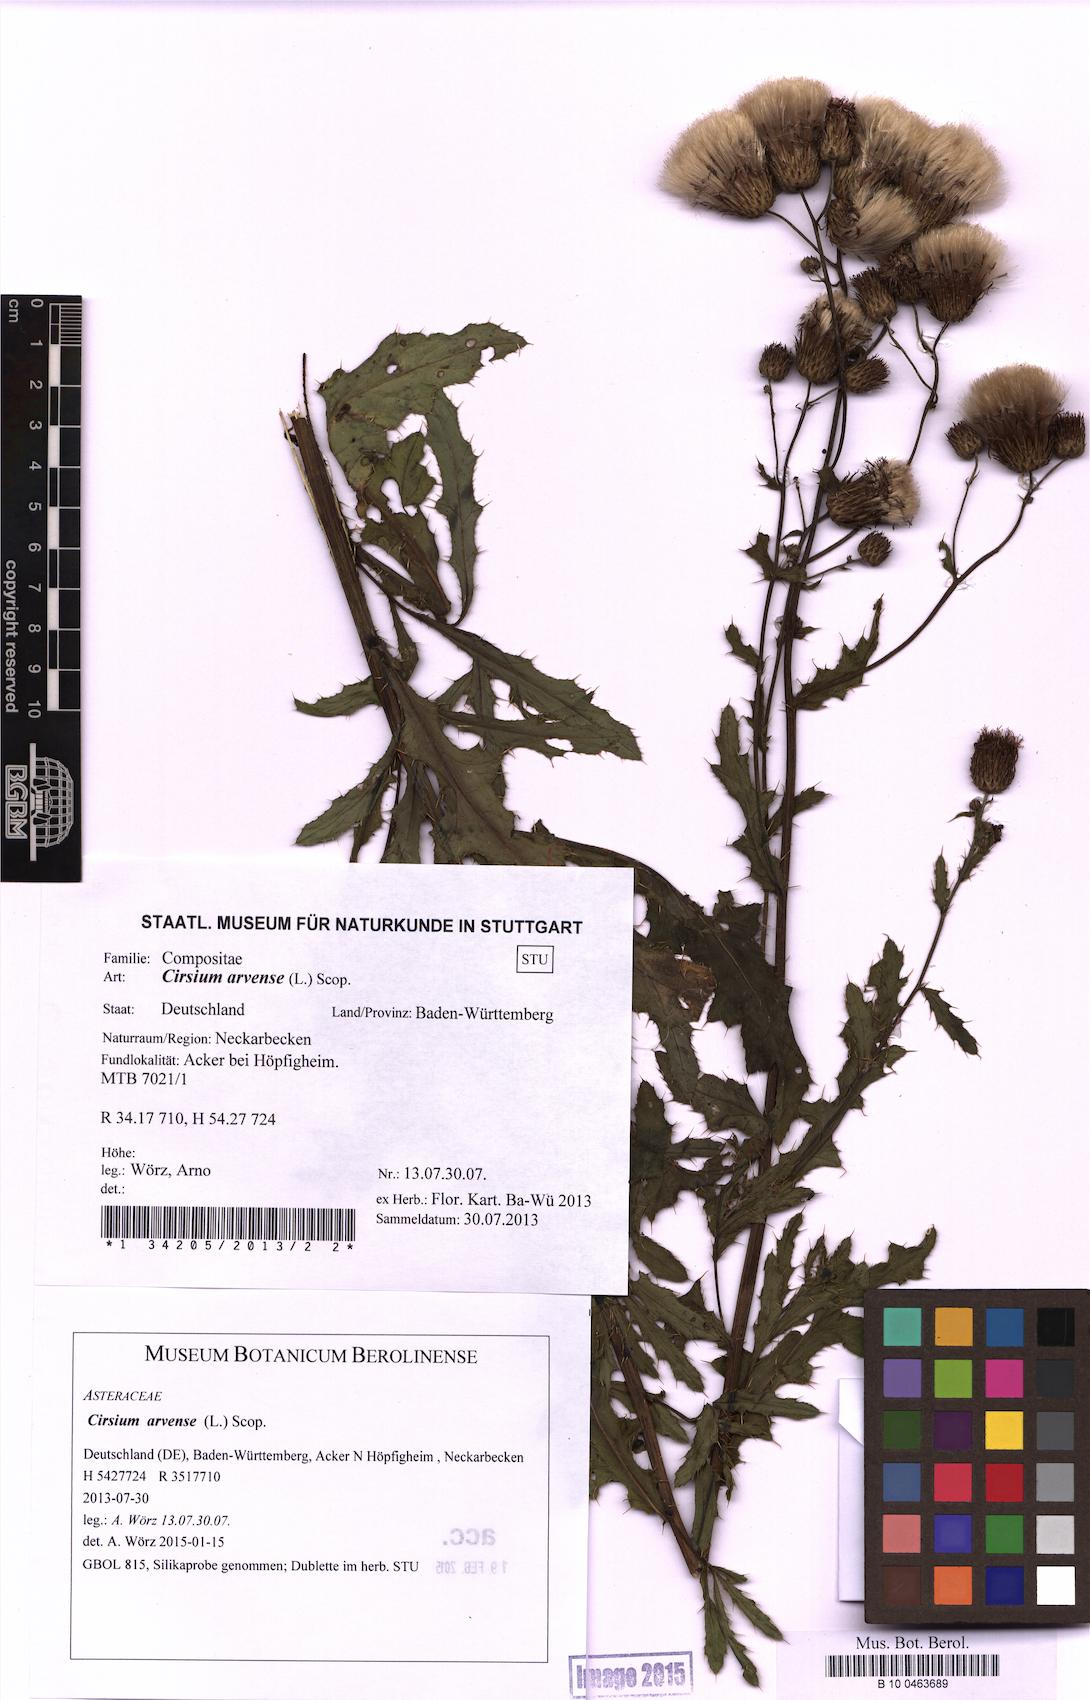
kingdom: Plantae
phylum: Tracheophyta
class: Magnoliopsida
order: Asterales
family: Asteraceae
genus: Cirsium
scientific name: Cirsium arvense
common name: Creeping thistle
